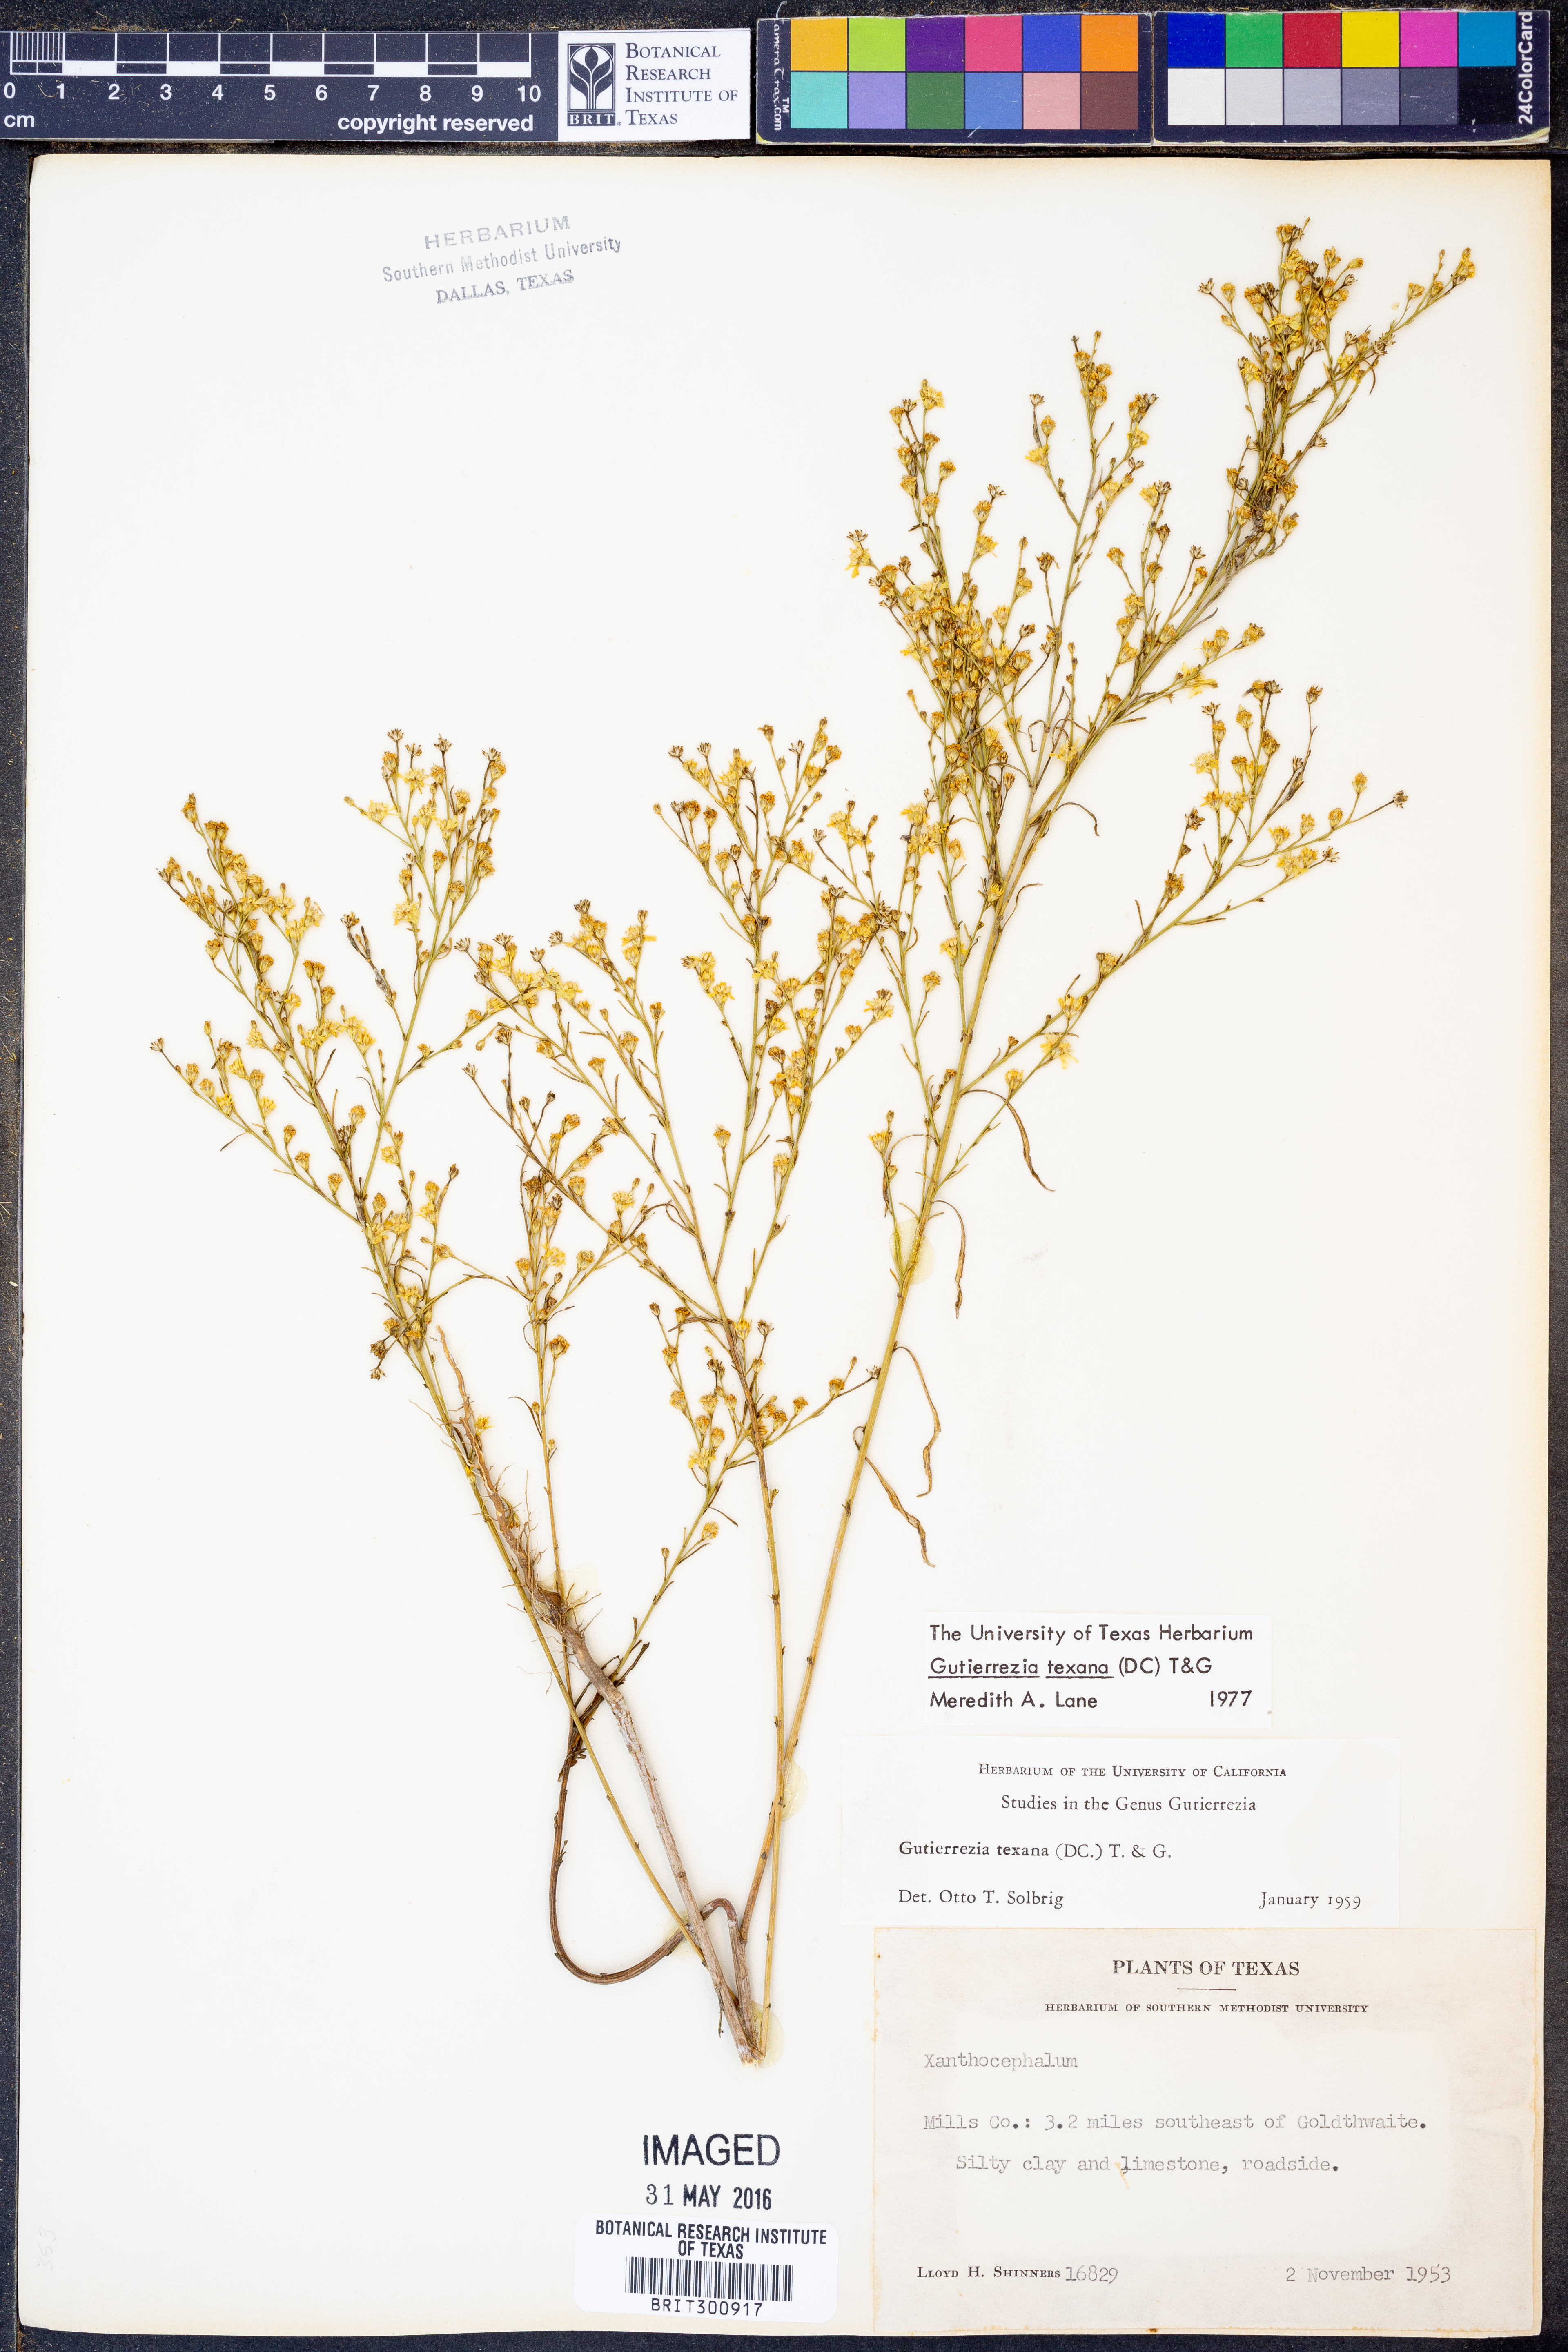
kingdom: Plantae
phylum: Tracheophyta
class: Magnoliopsida
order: Asterales
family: Asteraceae
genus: Gutierrezia
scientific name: Gutierrezia texana
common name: Texas snakeweed
